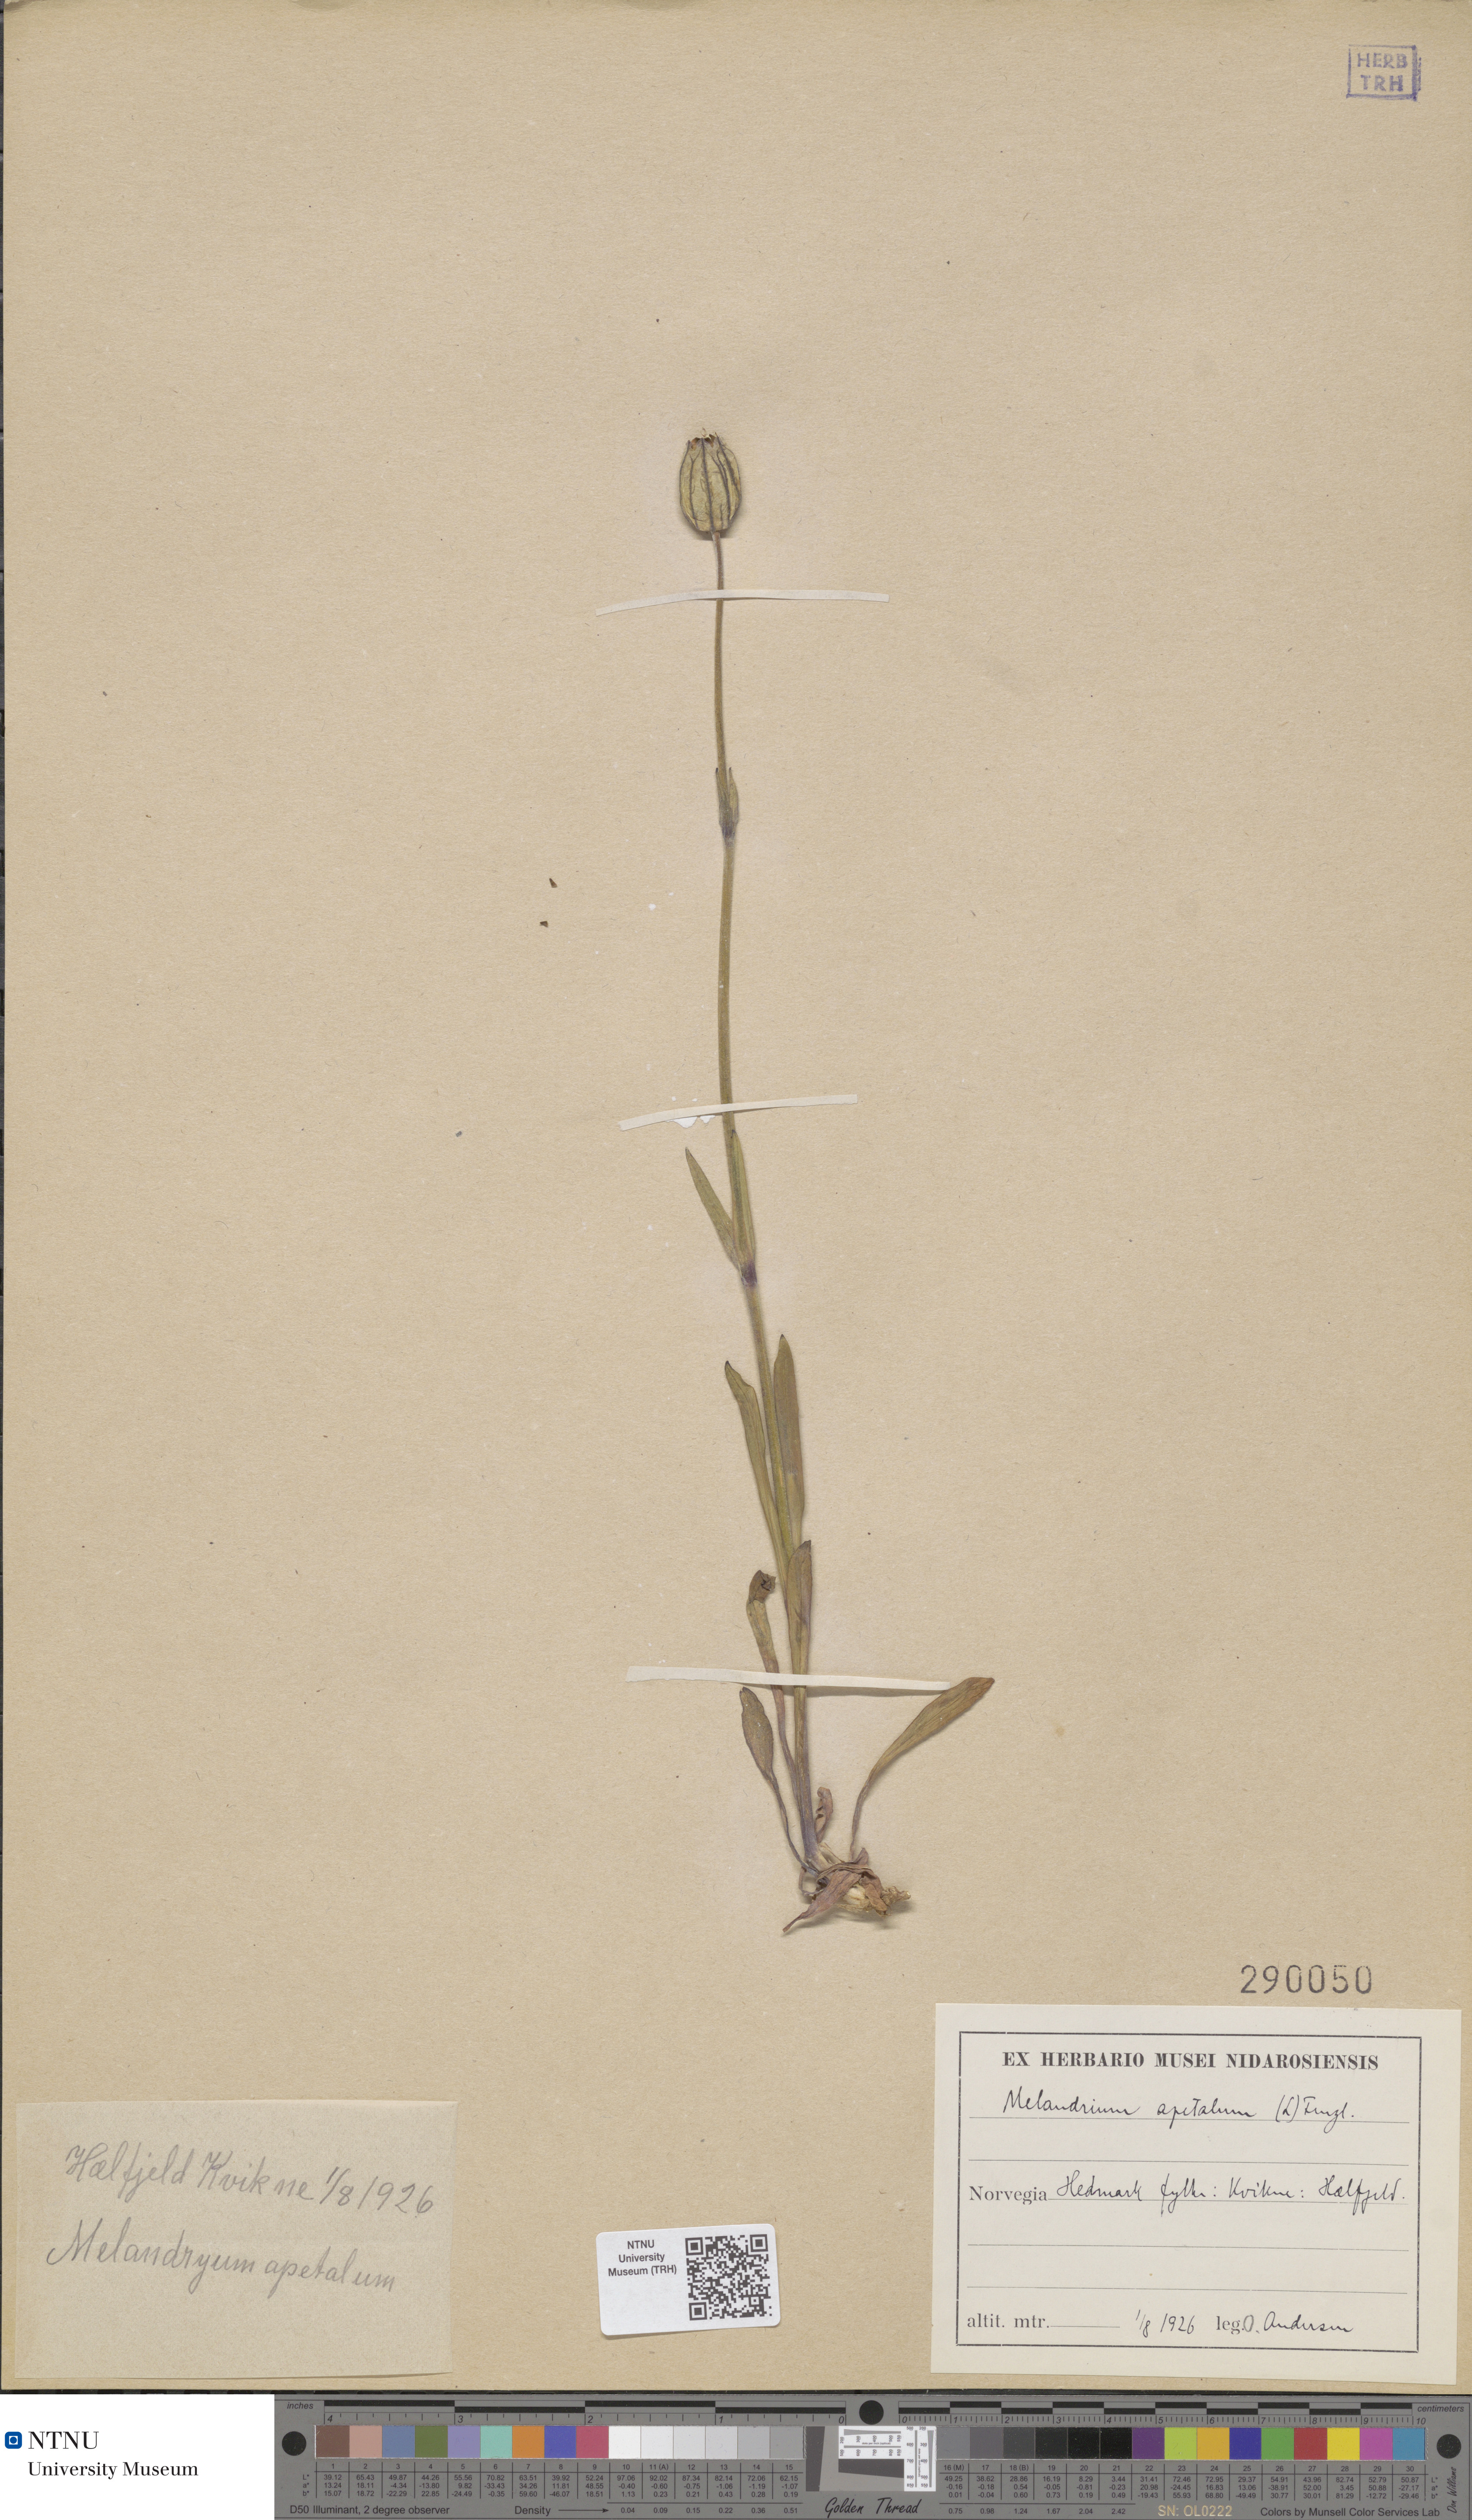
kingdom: Plantae
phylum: Tracheophyta
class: Magnoliopsida
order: Caryophyllales
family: Caryophyllaceae
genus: Silene
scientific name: Silene wahlbergella
